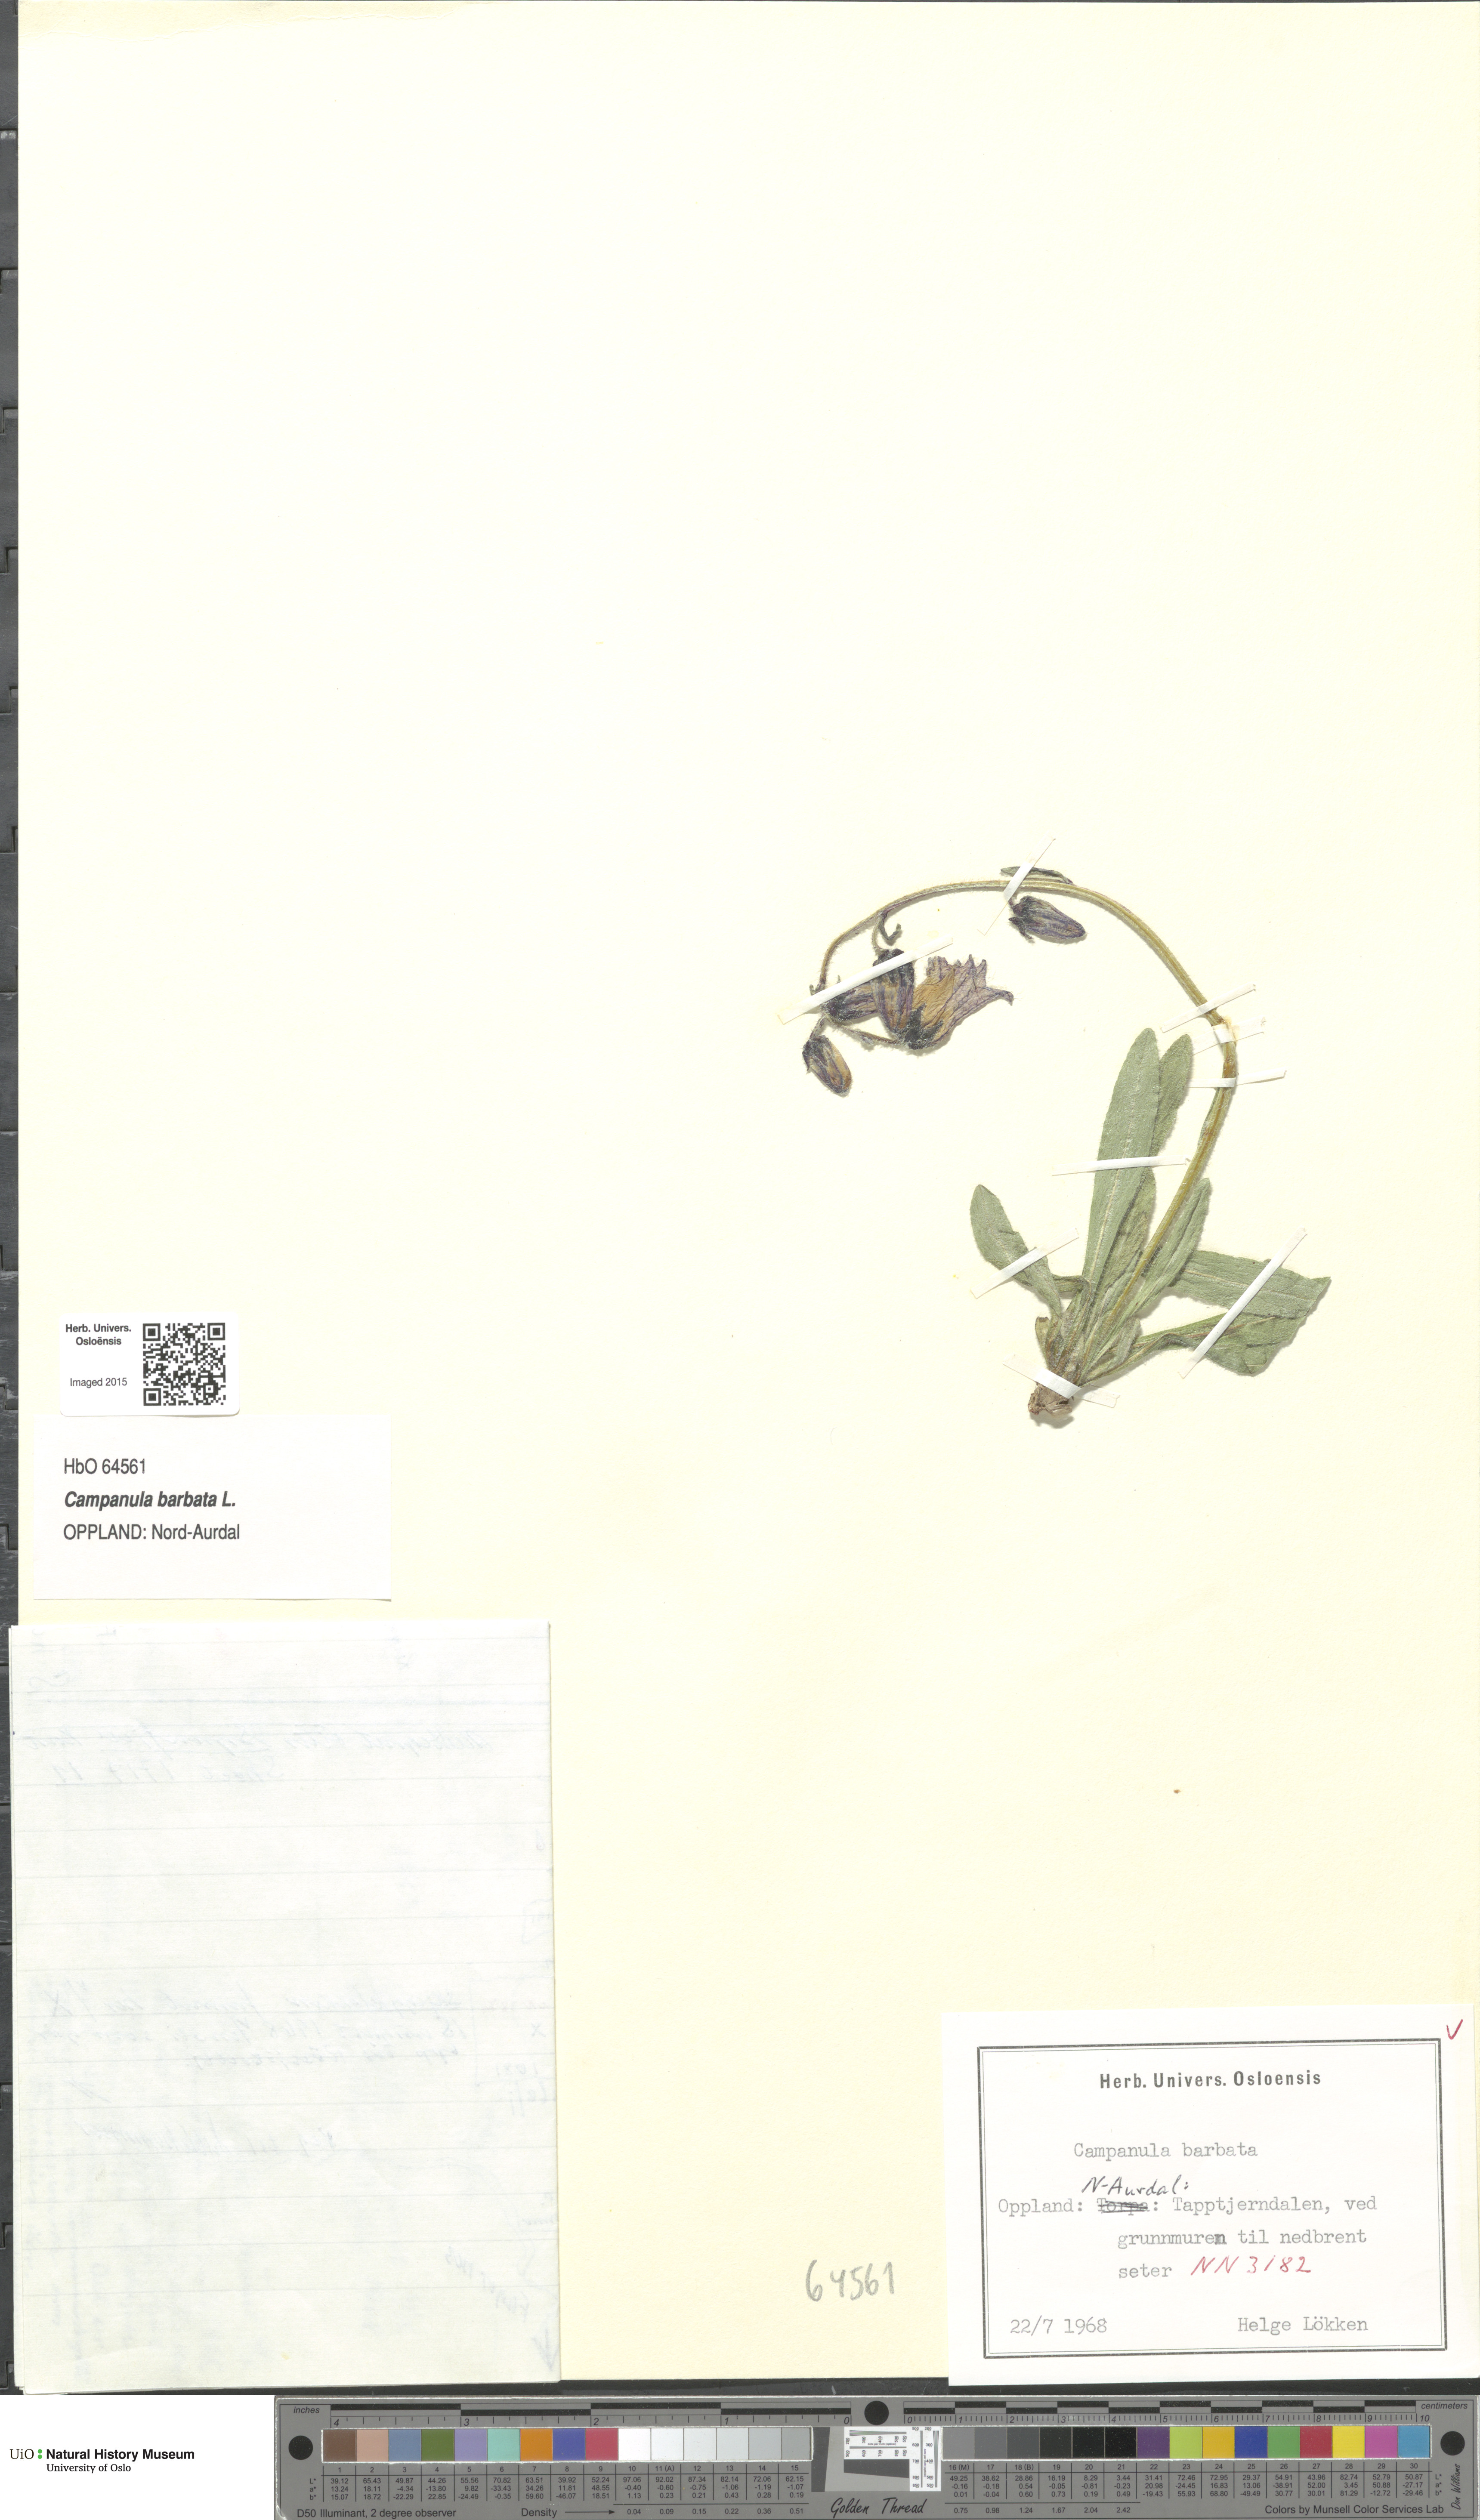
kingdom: Plantae
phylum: Tracheophyta
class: Magnoliopsida
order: Asterales
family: Campanulaceae
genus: Campanula
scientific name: Campanula barbata
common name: Bearded bellflower
